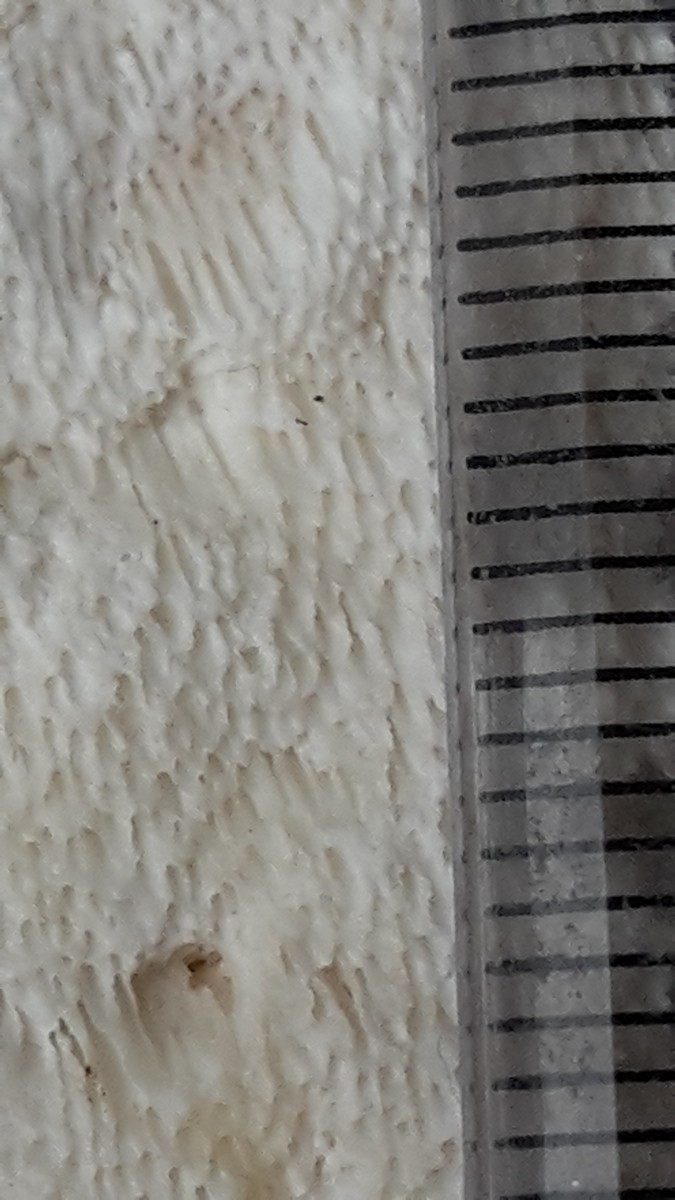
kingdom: Fungi
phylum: Basidiomycota
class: Agaricomycetes
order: Polyporales
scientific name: Polyporales
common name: poresvampordenen
